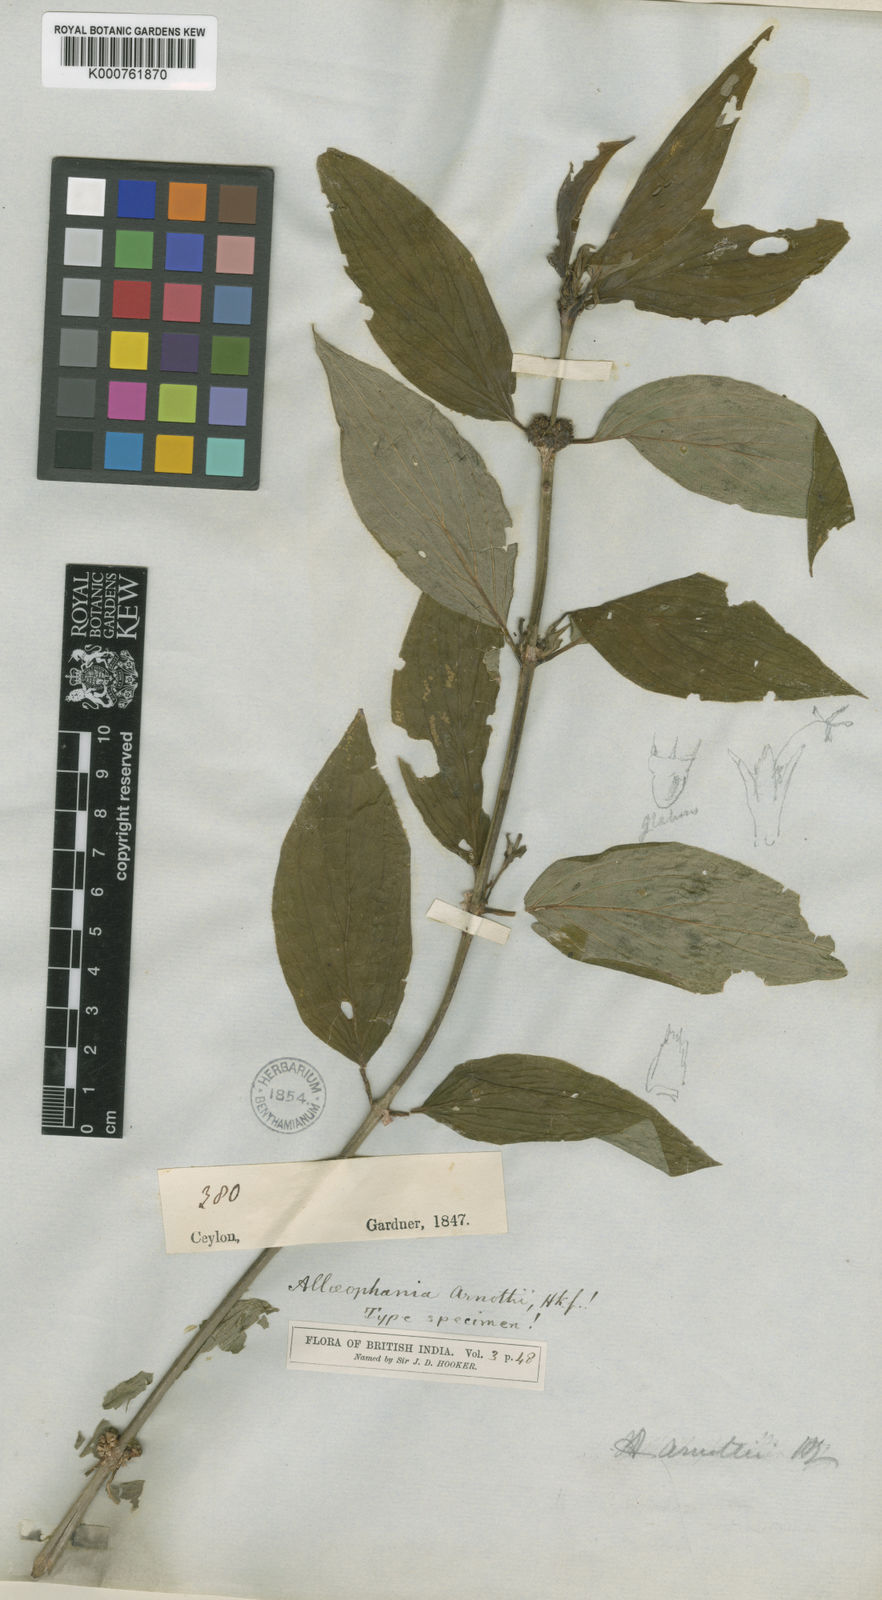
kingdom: Plantae
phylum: Tracheophyta
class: Magnoliopsida
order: Gentianales
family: Rubiaceae
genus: Hedyotis
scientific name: Hedyotis
